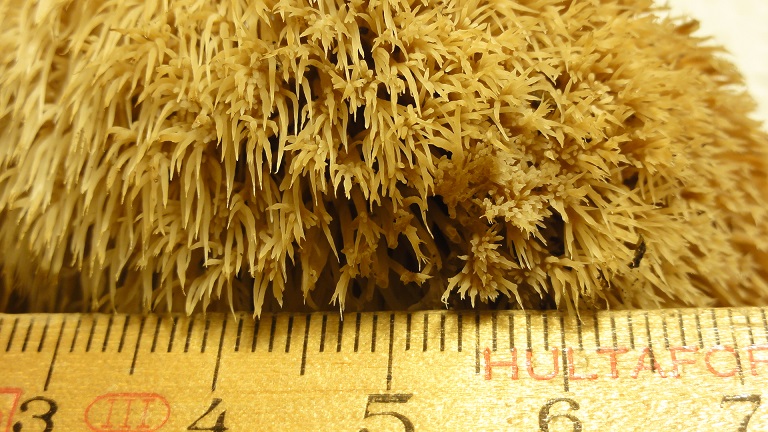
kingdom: Fungi
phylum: Basidiomycota
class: Agaricomycetes
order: Agaricales
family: Pterulaceae
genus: Pterula
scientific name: Pterula multifida
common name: busket fjerkølle
